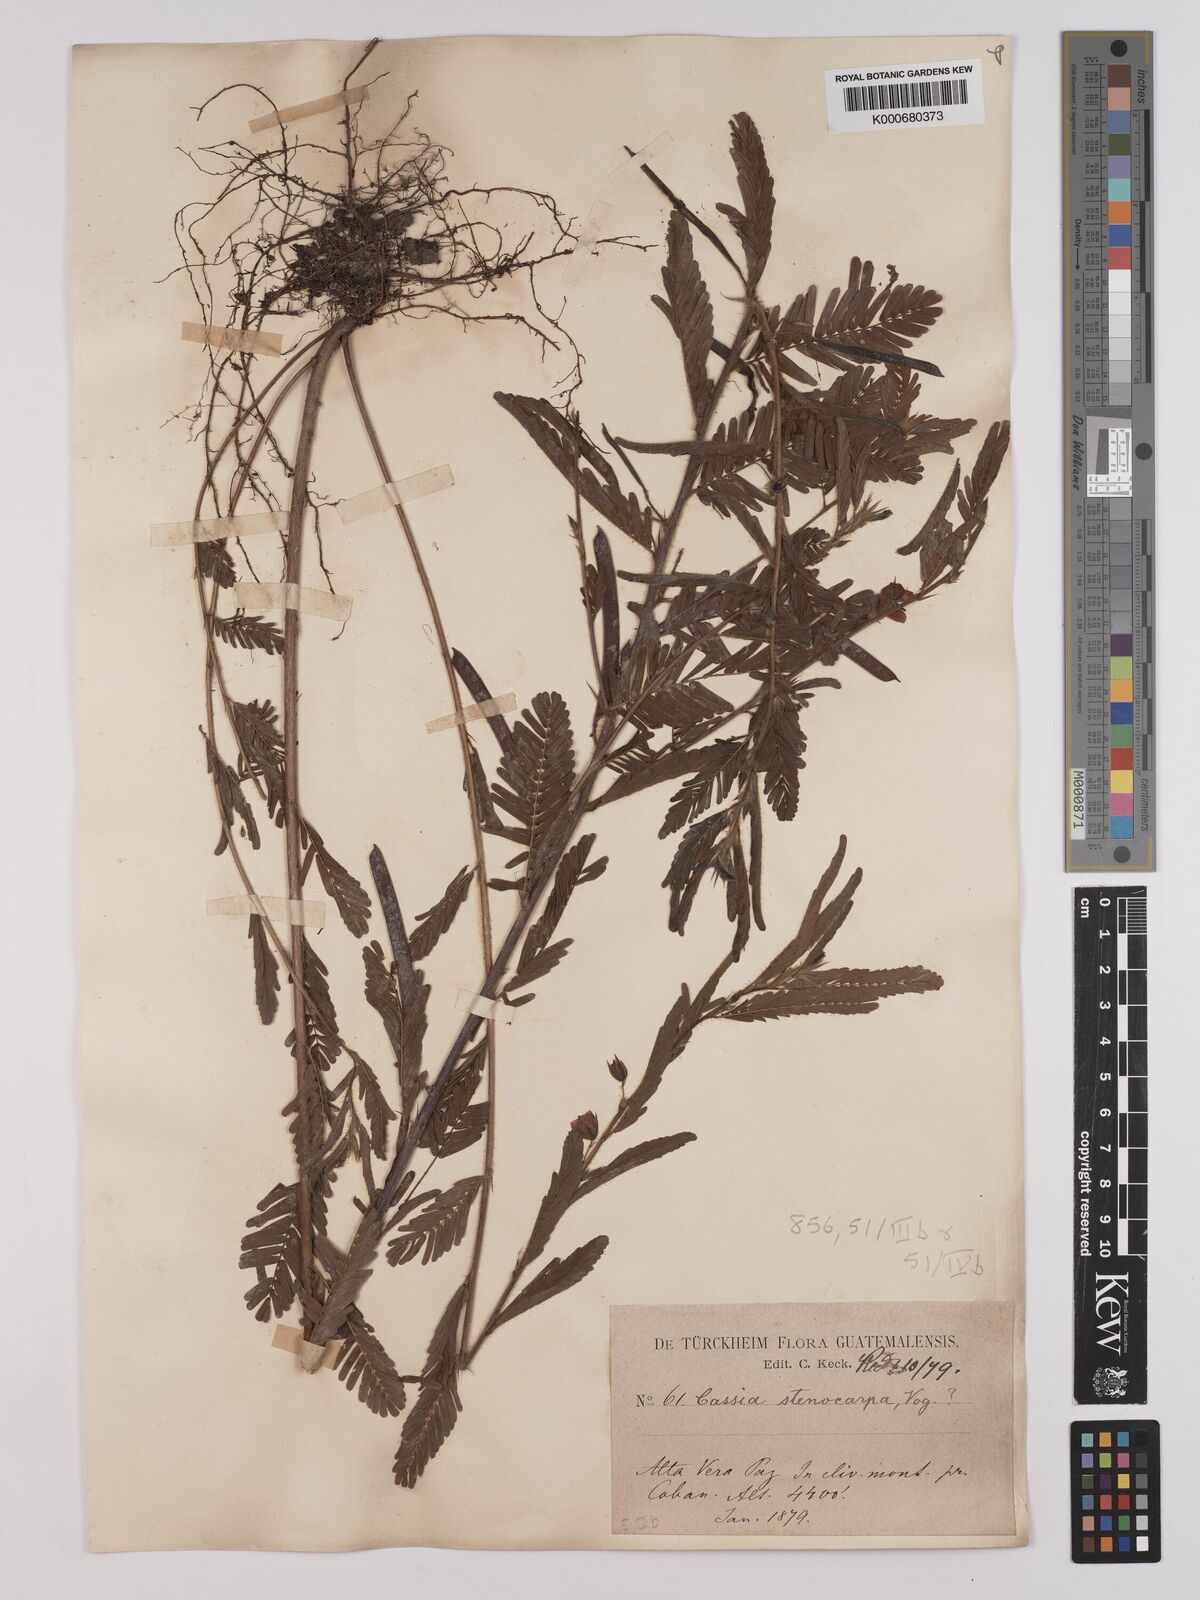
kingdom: Plantae
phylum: Tracheophyta
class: Magnoliopsida
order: Fabales
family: Fabaceae
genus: Chamaecrista
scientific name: Chamaecrista nictitans
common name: Sensitive cassia
